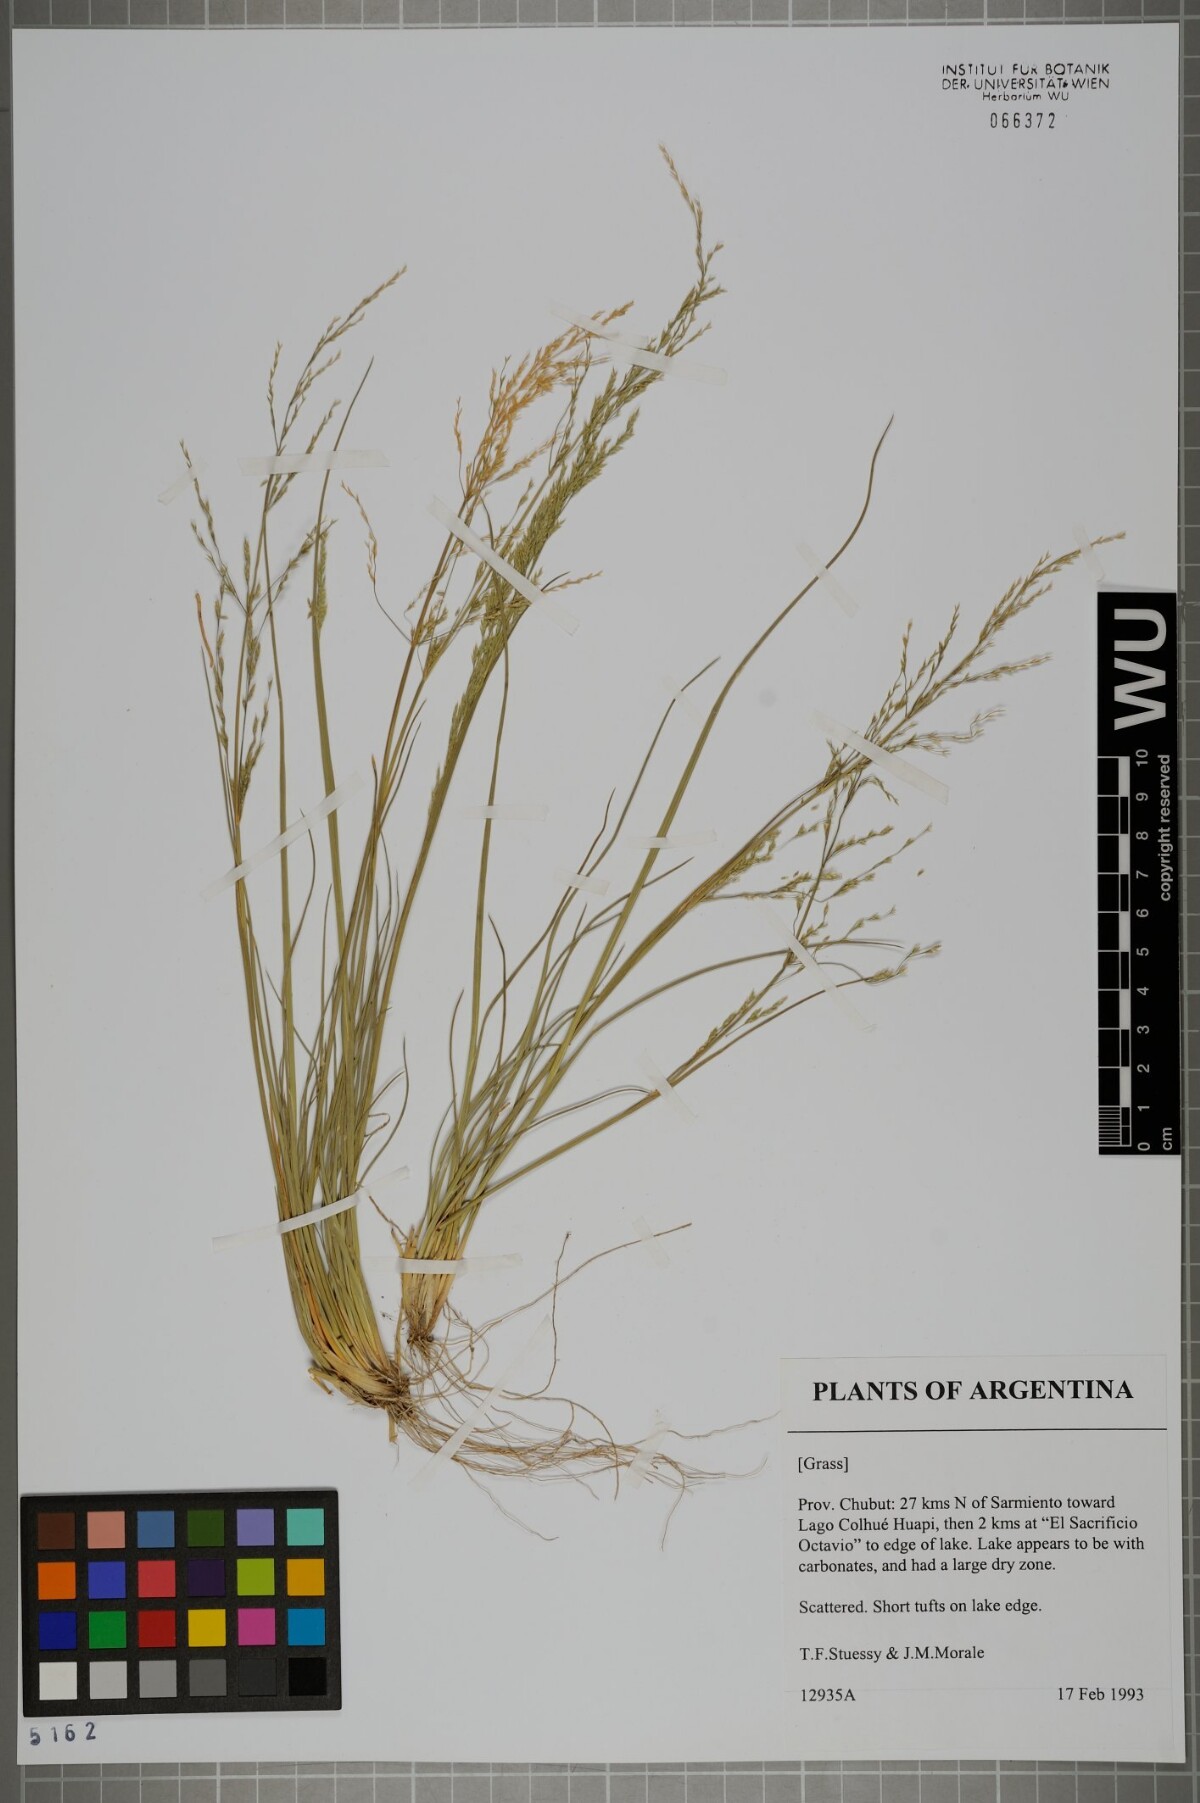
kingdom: Plantae
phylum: Tracheophyta
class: Liliopsida
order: Poales
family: Poaceae
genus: Agrostis
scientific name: Agrostis philippiana
